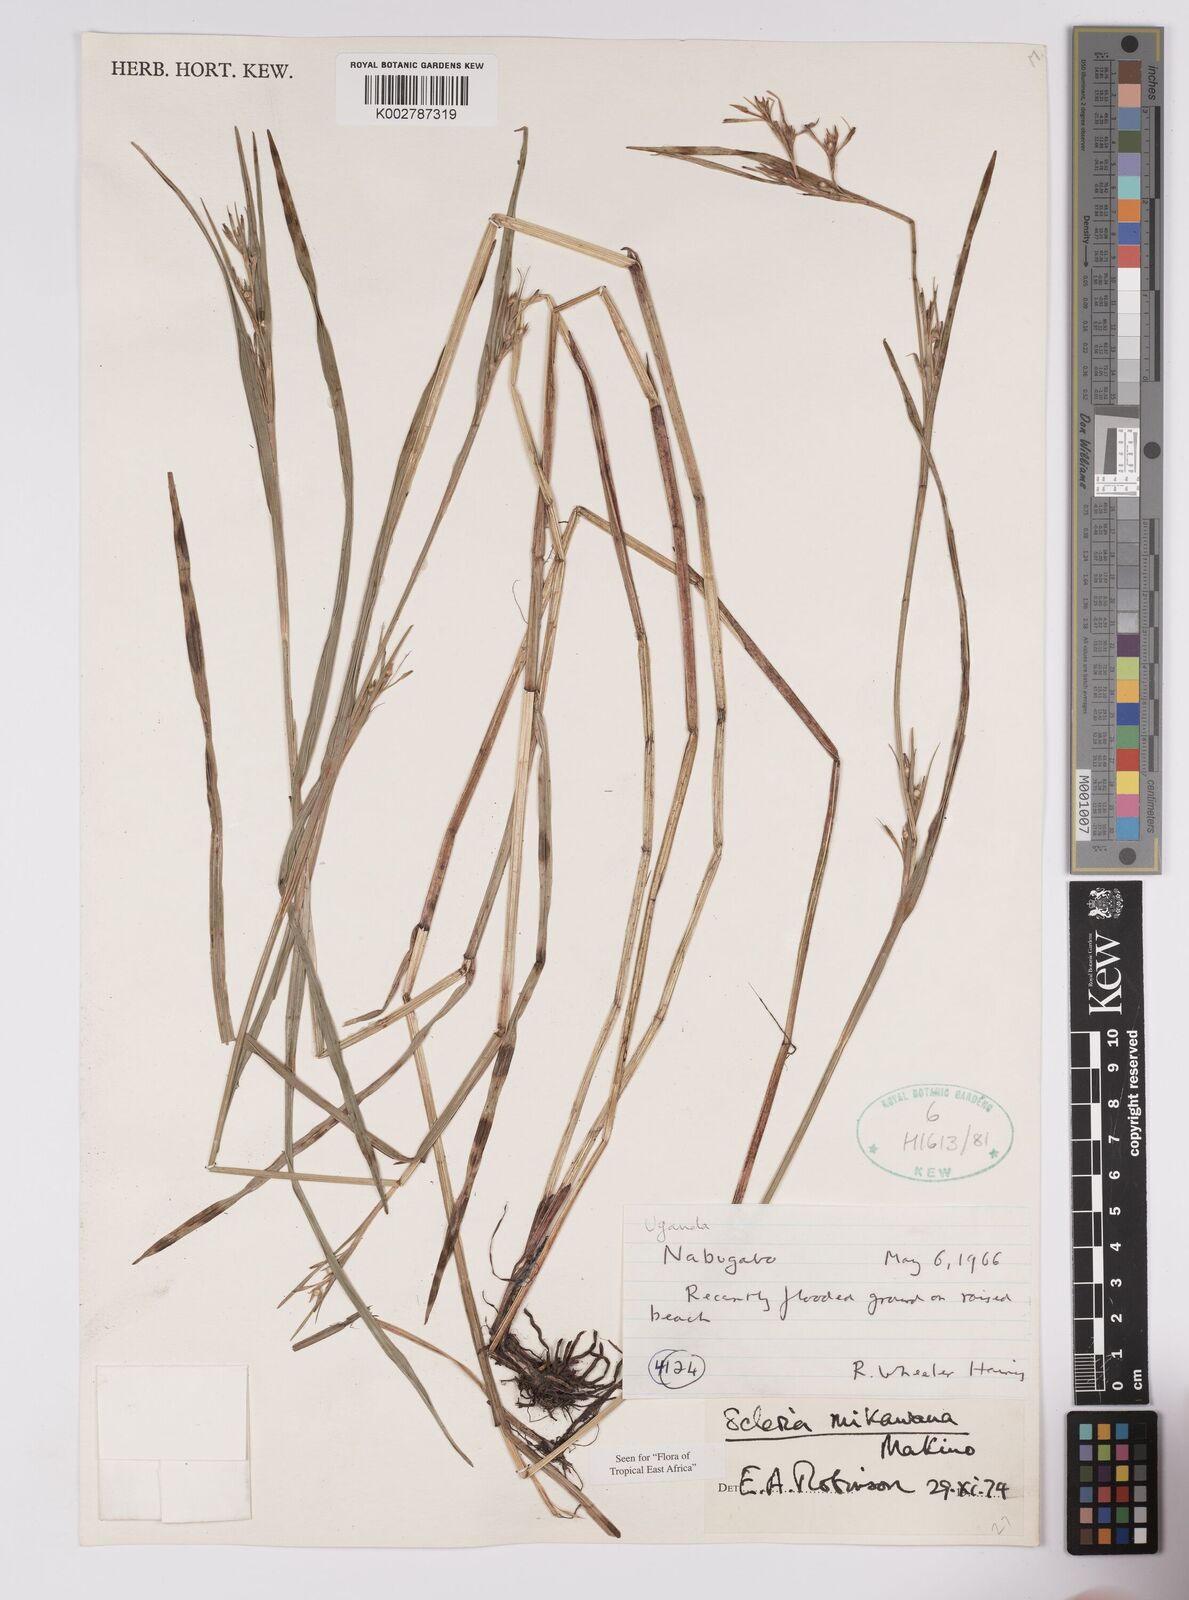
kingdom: Plantae
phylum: Tracheophyta
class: Liliopsida
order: Poales
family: Cyperaceae
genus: Scleria
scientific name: Scleria mikawana
